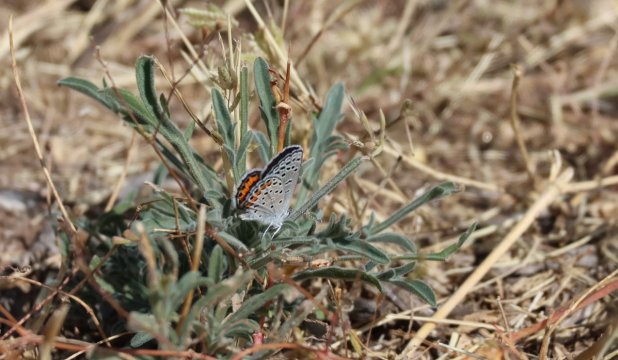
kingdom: Animalia
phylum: Arthropoda
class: Insecta
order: Lepidoptera
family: Lycaenidae
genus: Plebejus
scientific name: Plebejus acmon
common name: Acmon Blue
